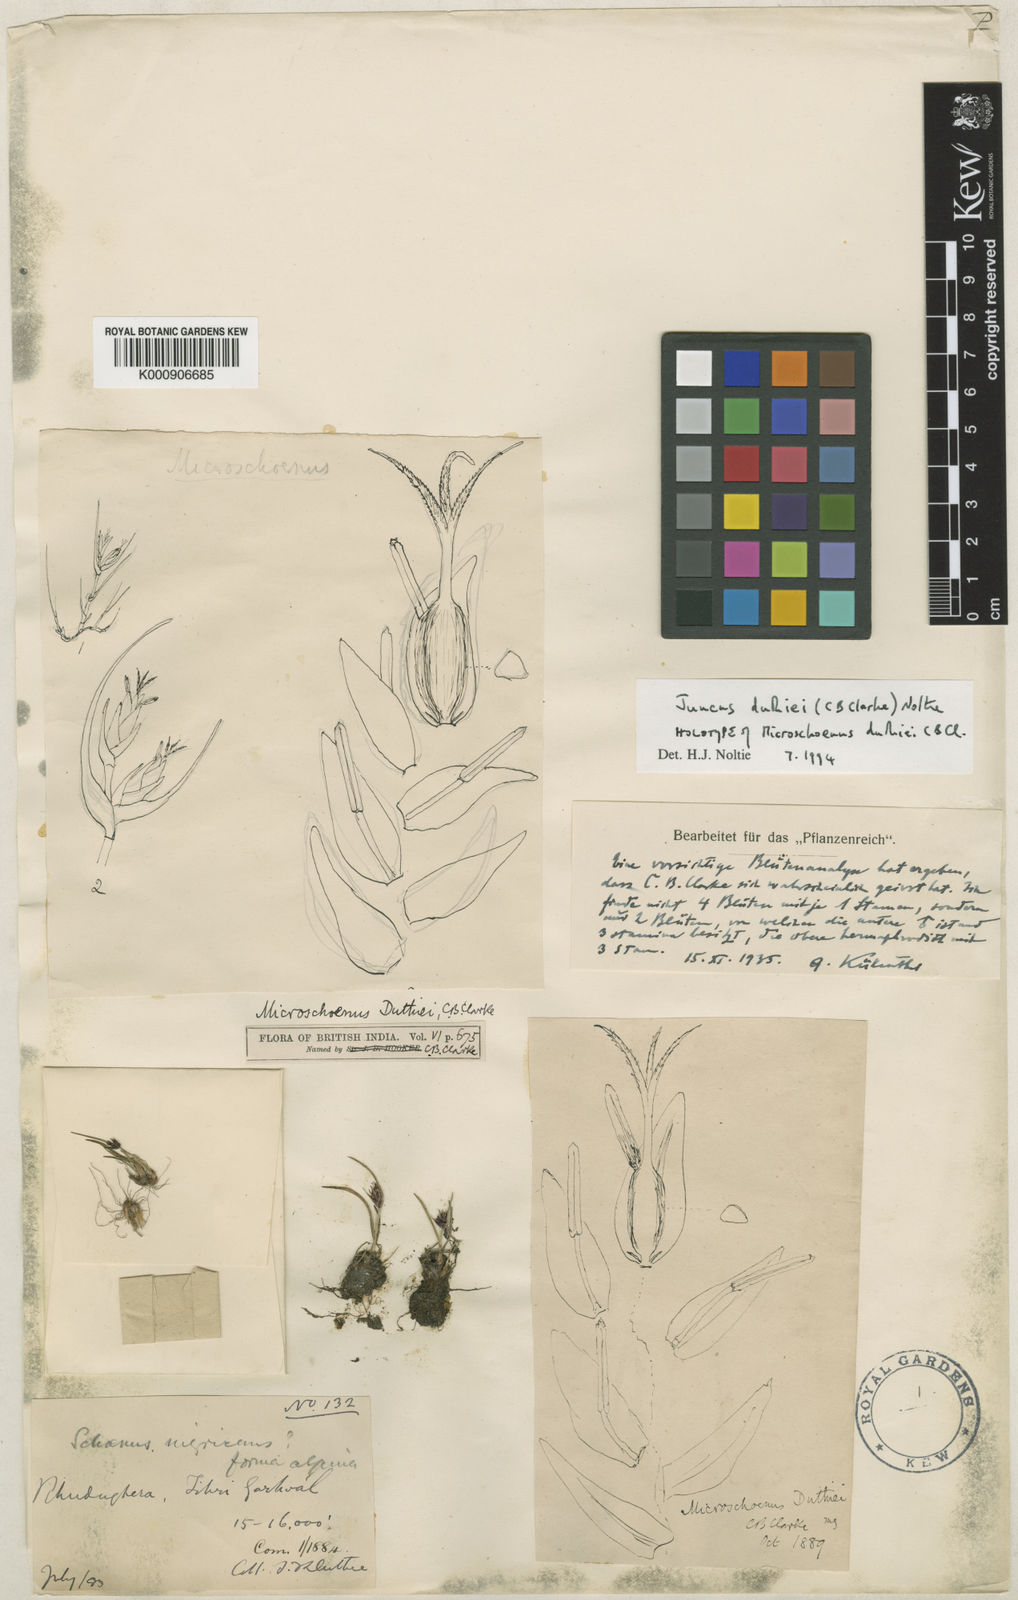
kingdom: Plantae
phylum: Tracheophyta
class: Liliopsida
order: Poales
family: Juncaceae
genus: Juncus
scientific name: Juncus duthiei
